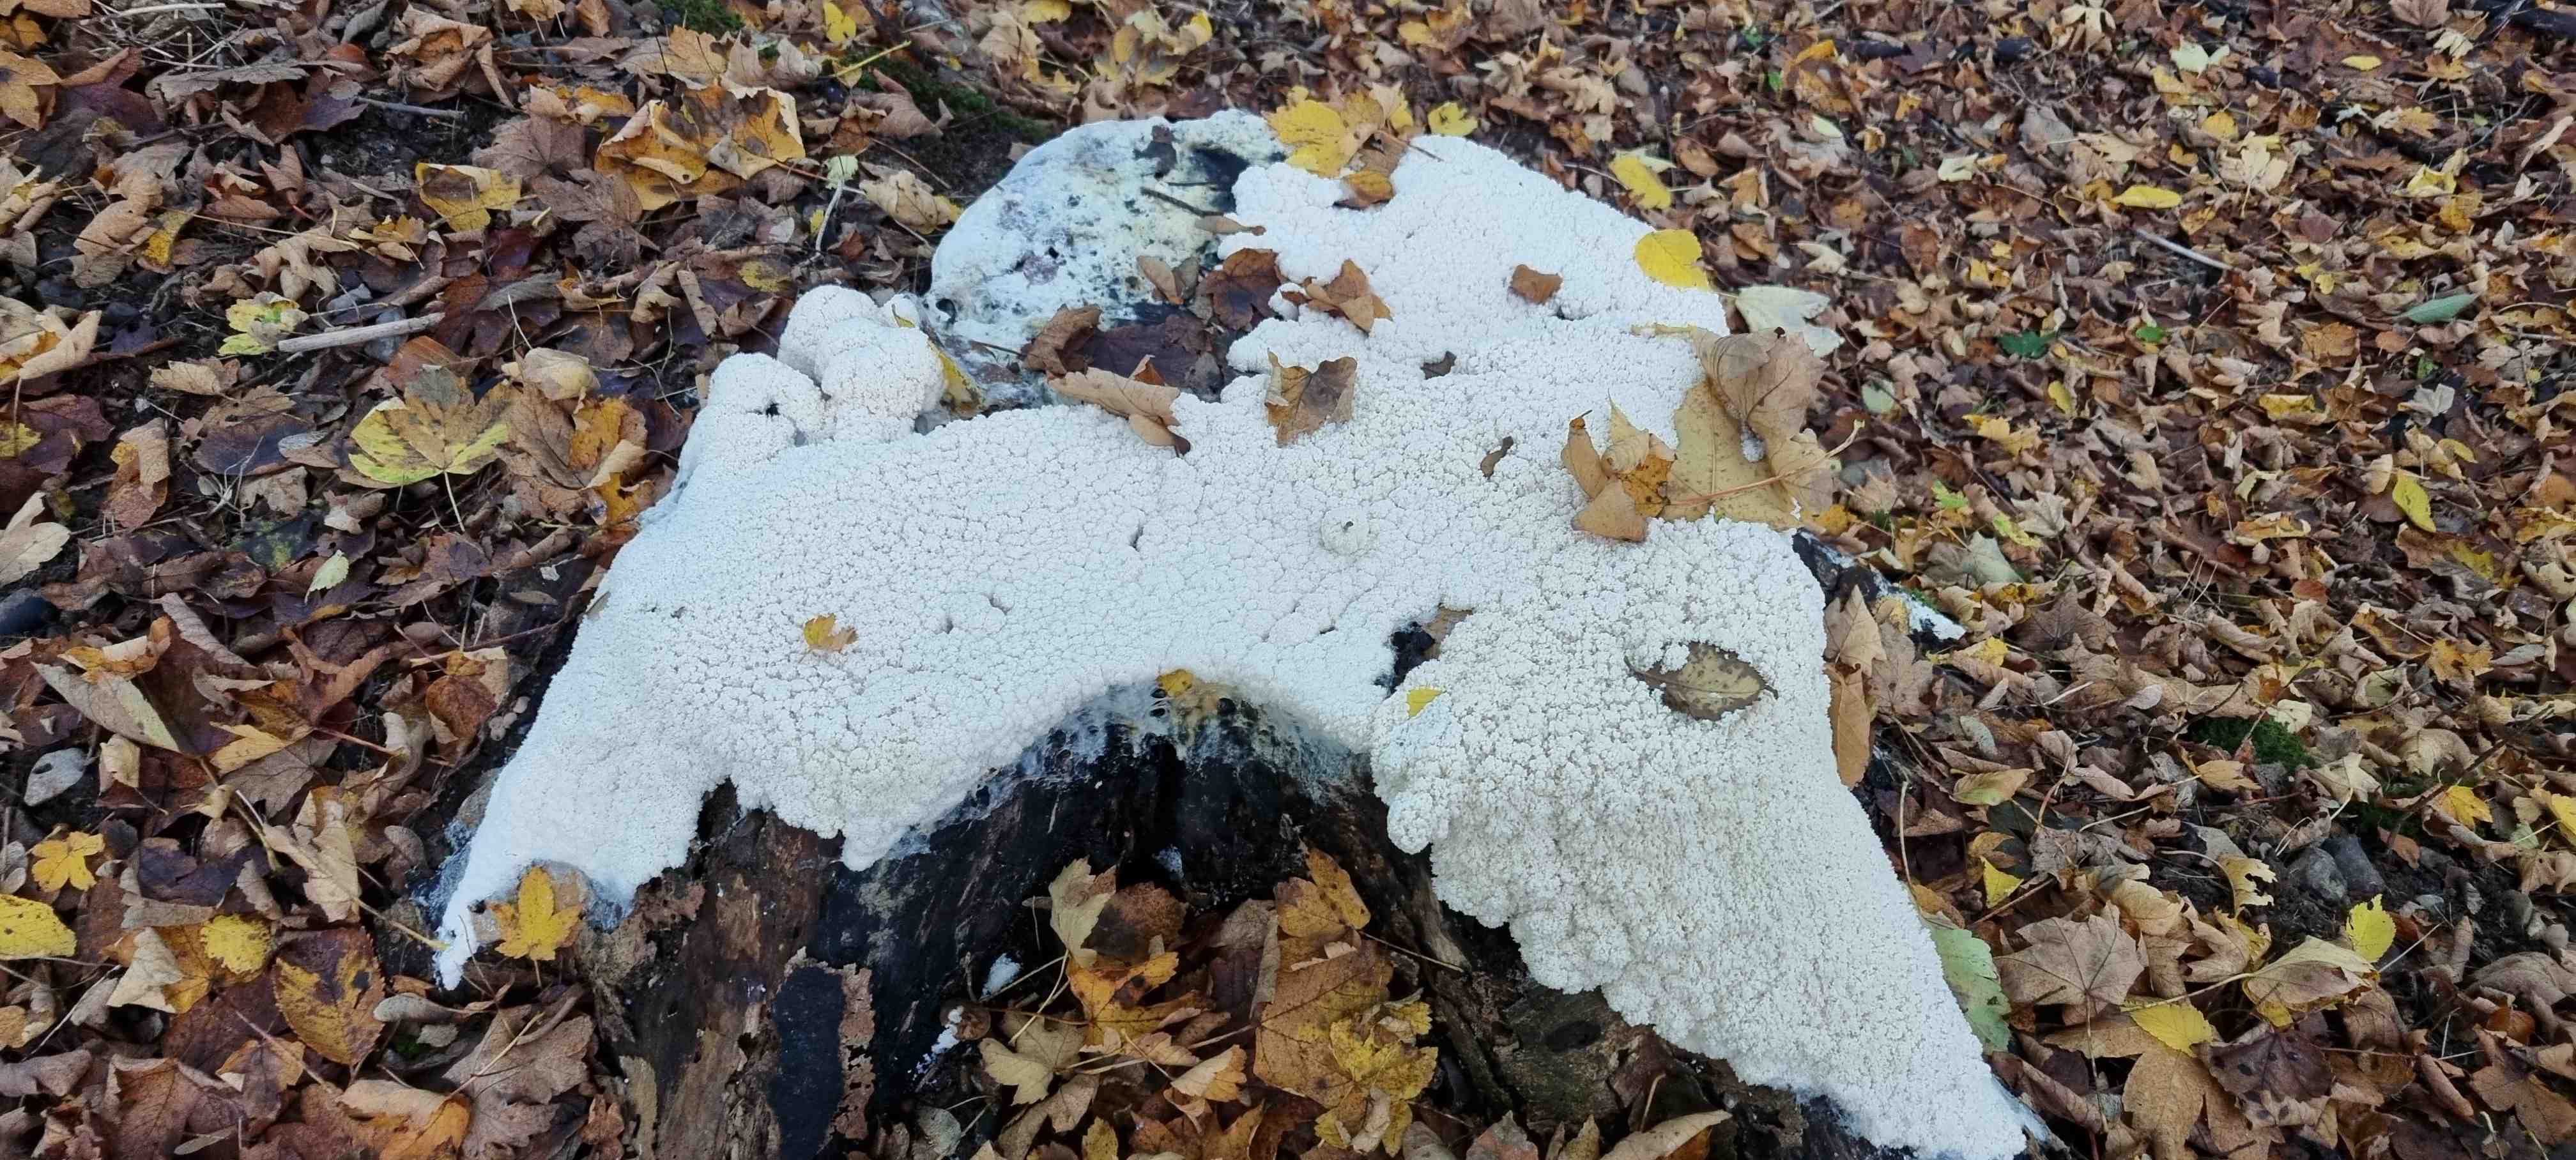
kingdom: Protozoa
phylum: Mycetozoa
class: Myxomycetes
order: Stemonitidales
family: Stemonitidaceae
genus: Brefeldia
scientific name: Brefeldia maxima
